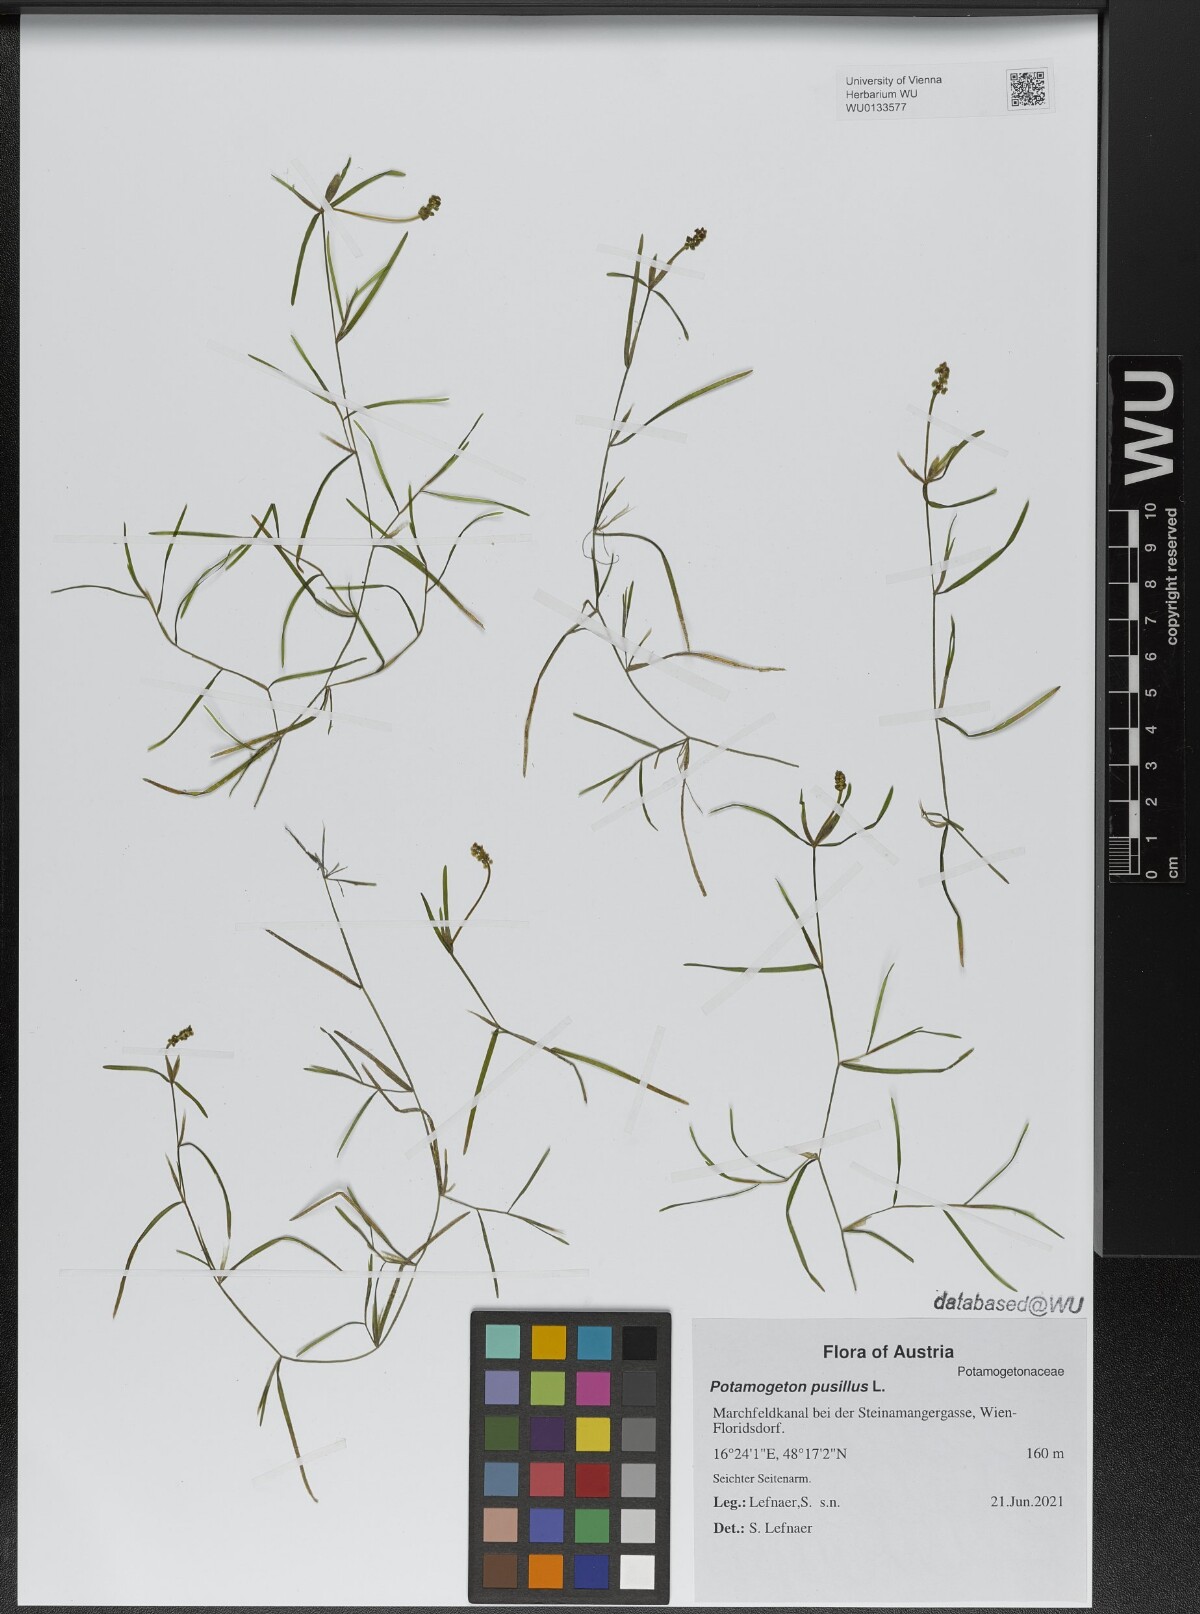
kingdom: Plantae
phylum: Tracheophyta
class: Liliopsida
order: Alismatales
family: Potamogetonaceae
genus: Potamogeton
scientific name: Potamogeton pusillus
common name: Lesser pondweed
